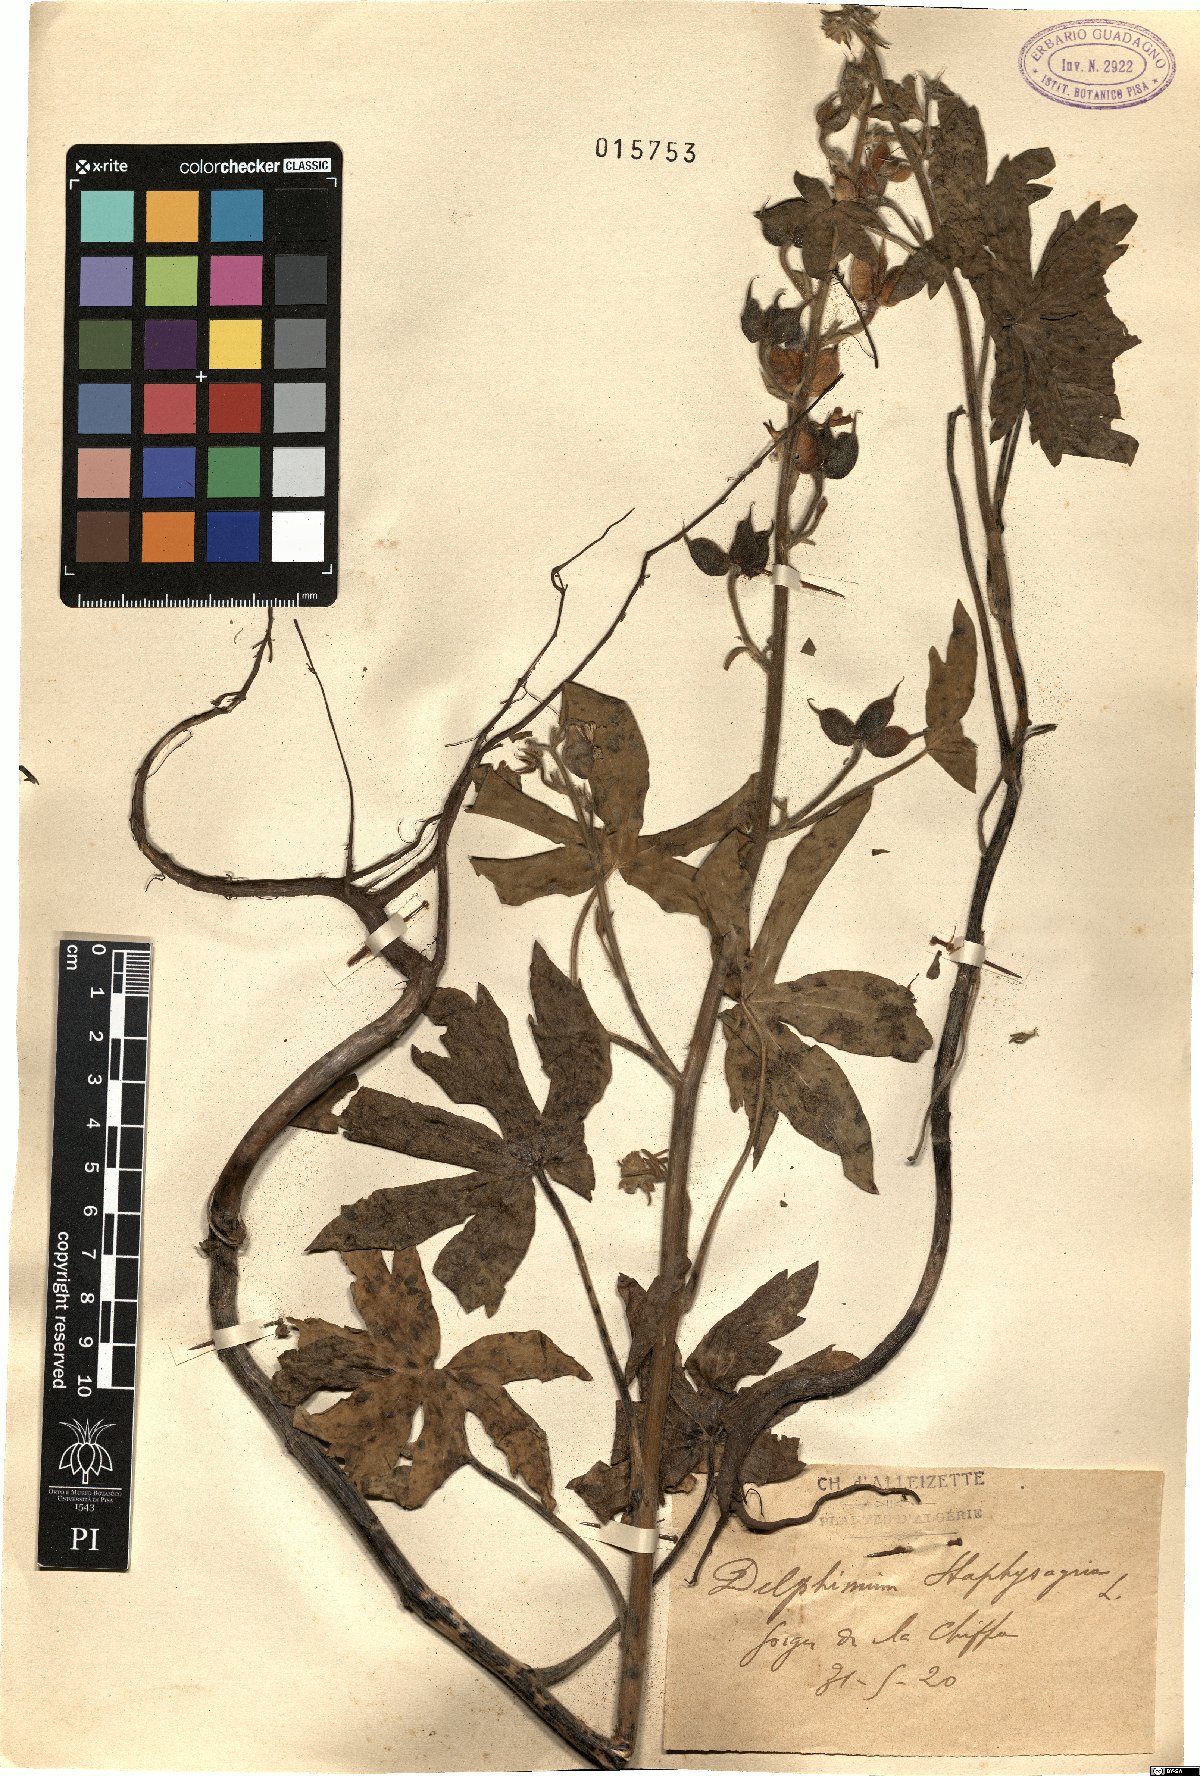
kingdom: Plantae
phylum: Tracheophyta
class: Magnoliopsida
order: Ranunculales
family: Ranunculaceae
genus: Staphisagria
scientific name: Staphisagria macrosperma
